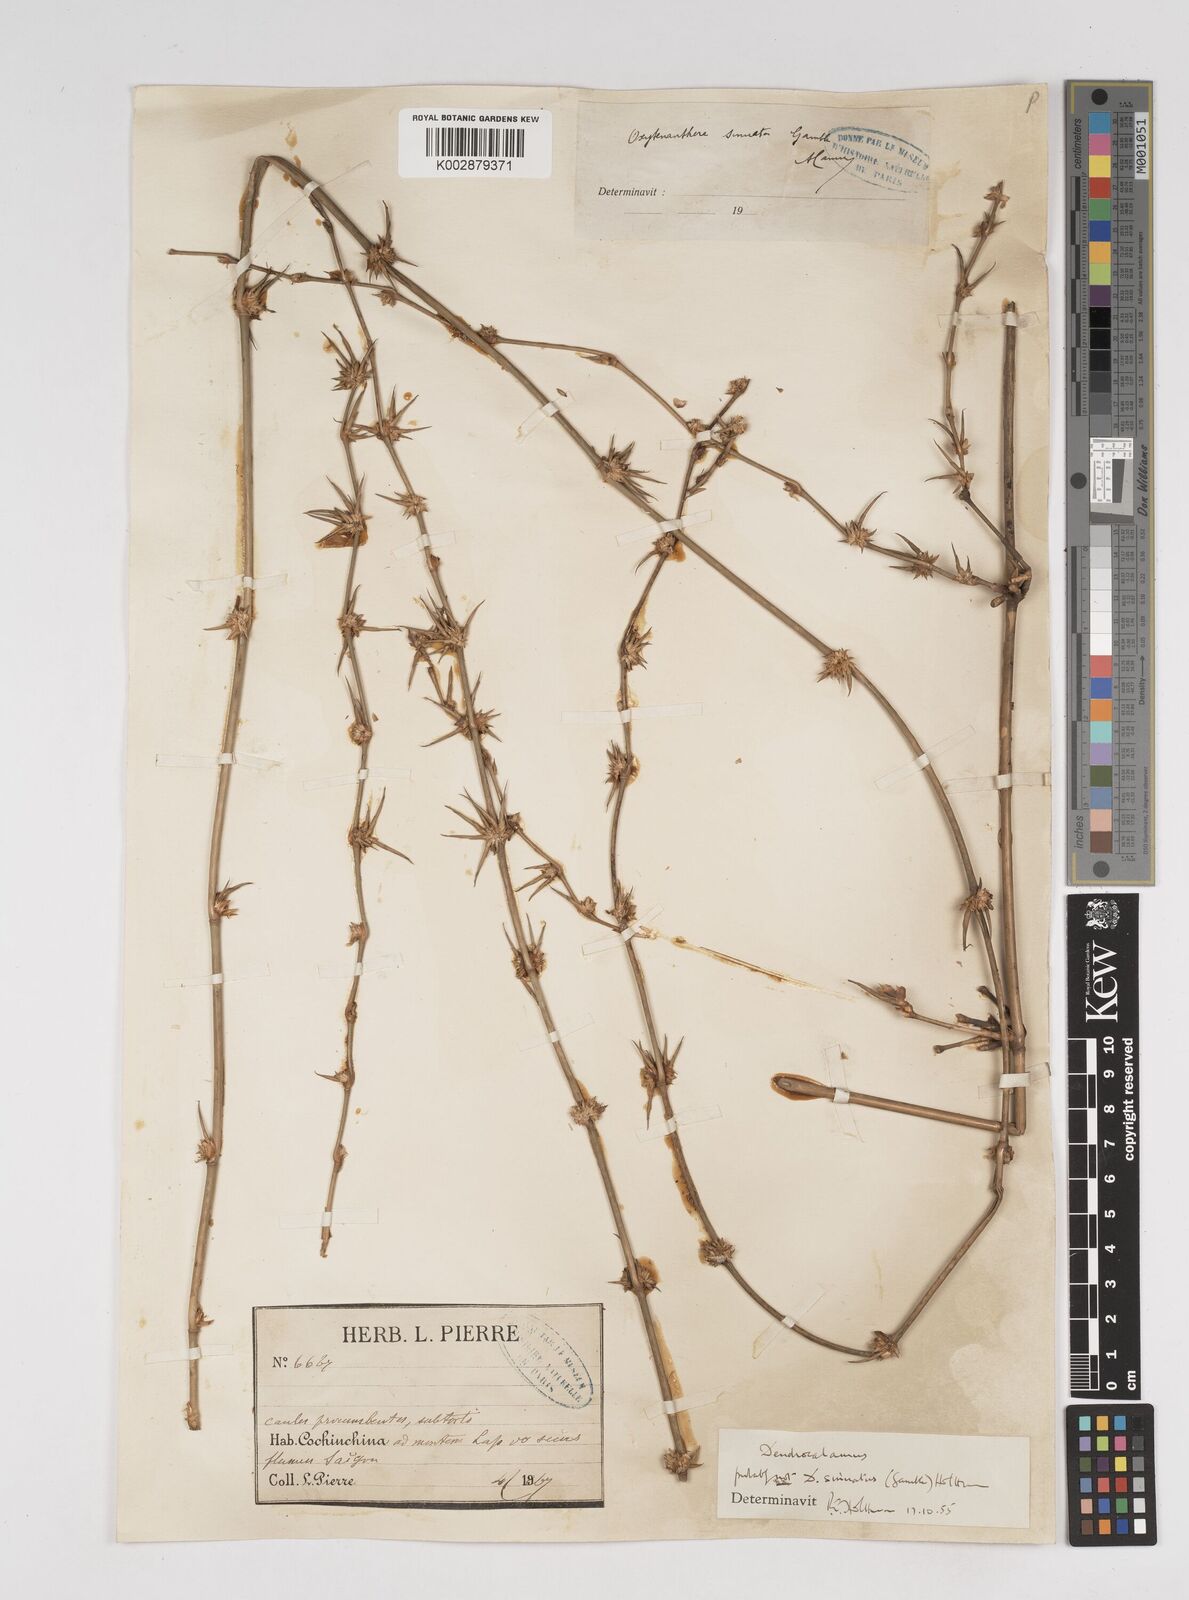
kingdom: Plantae
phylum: Tracheophyta
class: Liliopsida
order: Poales
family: Poaceae
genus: Dendrocalamus
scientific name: Dendrocalamus
